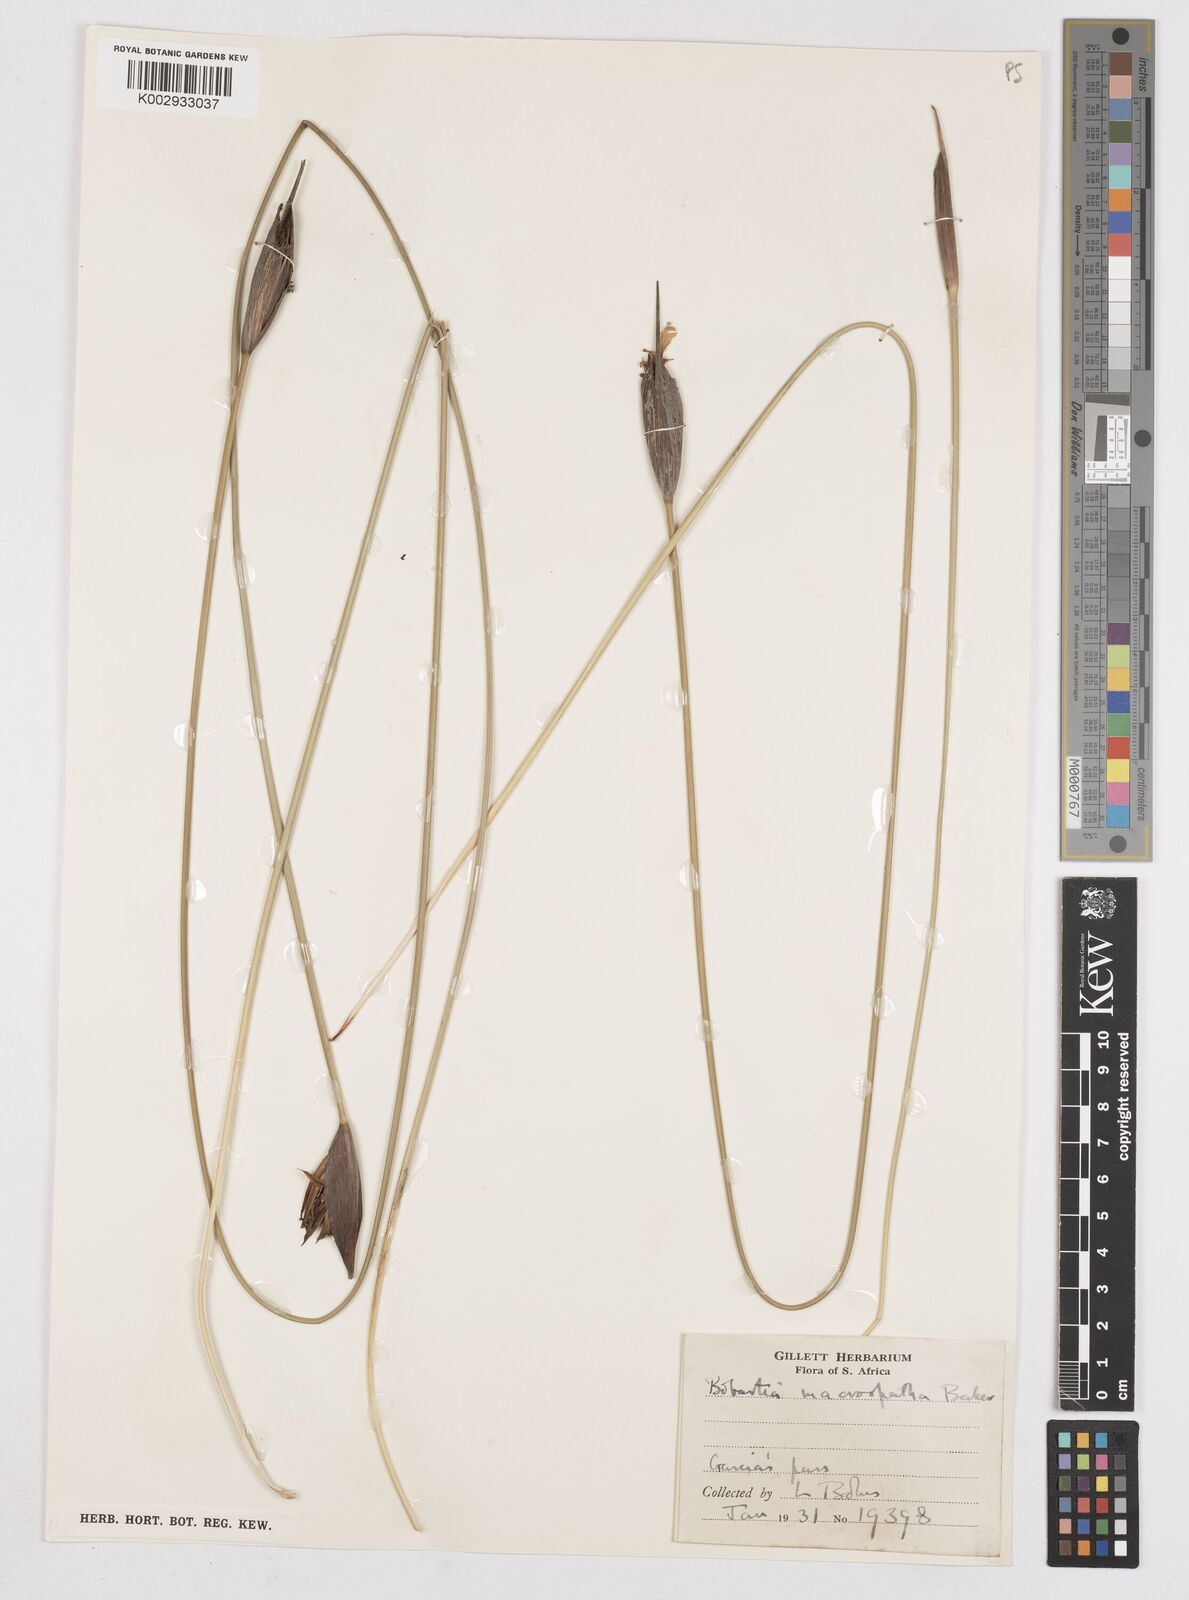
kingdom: Plantae
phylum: Tracheophyta
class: Liliopsida
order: Asparagales
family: Iridaceae
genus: Bobartia
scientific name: Bobartia macrospatha
